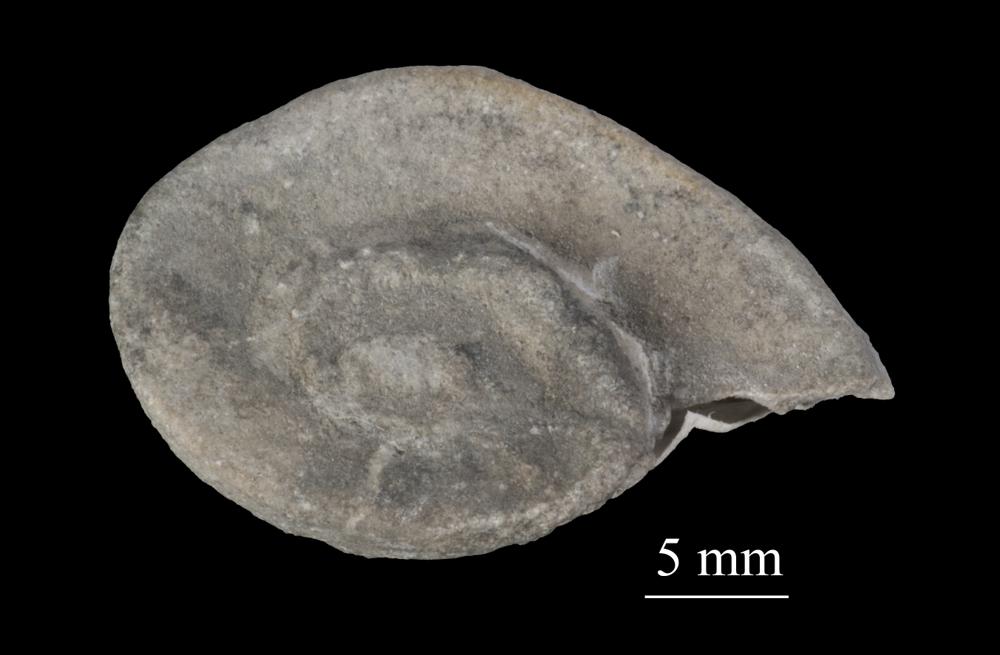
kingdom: Animalia
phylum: Mollusca
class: Gastropoda
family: Lesueurillidae
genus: Pararaphistoma
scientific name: Pararaphistoma Raphistoma scalare
